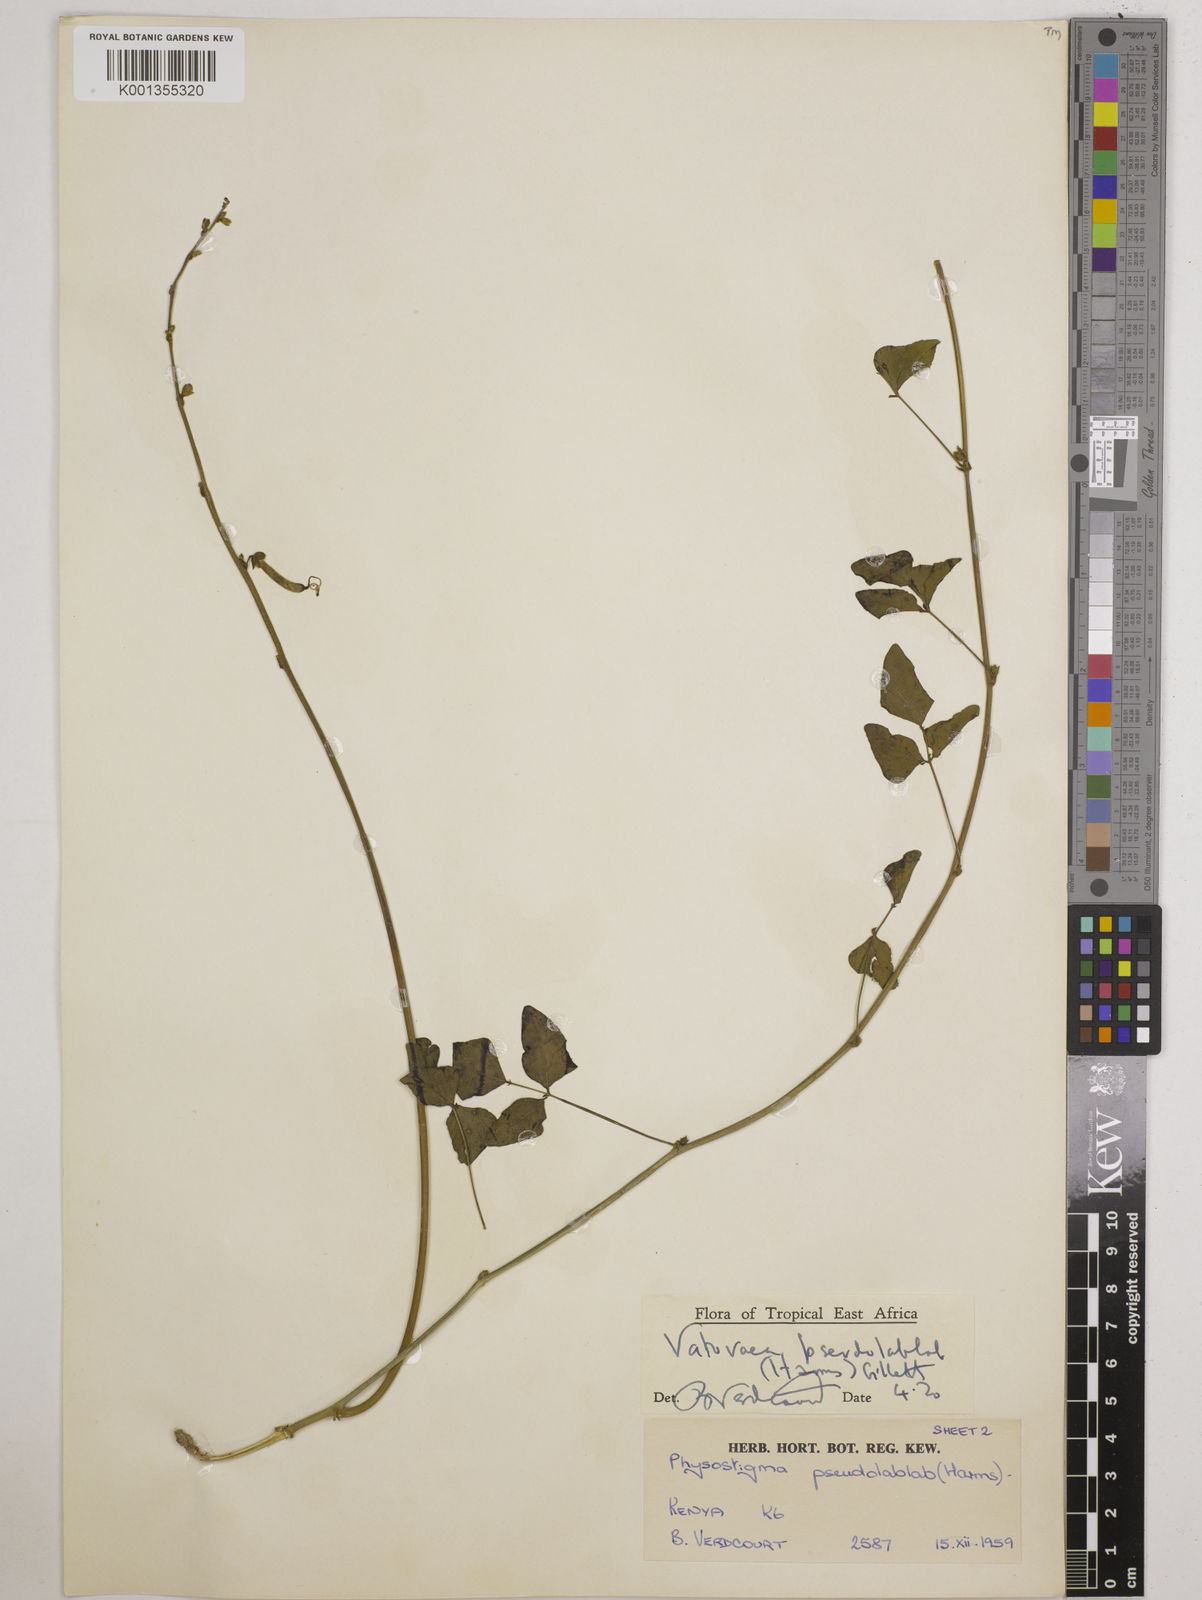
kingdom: Plantae
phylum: Tracheophyta
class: Magnoliopsida
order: Fabales
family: Fabaceae
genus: Vatovaea
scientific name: Vatovaea pseudolablab
